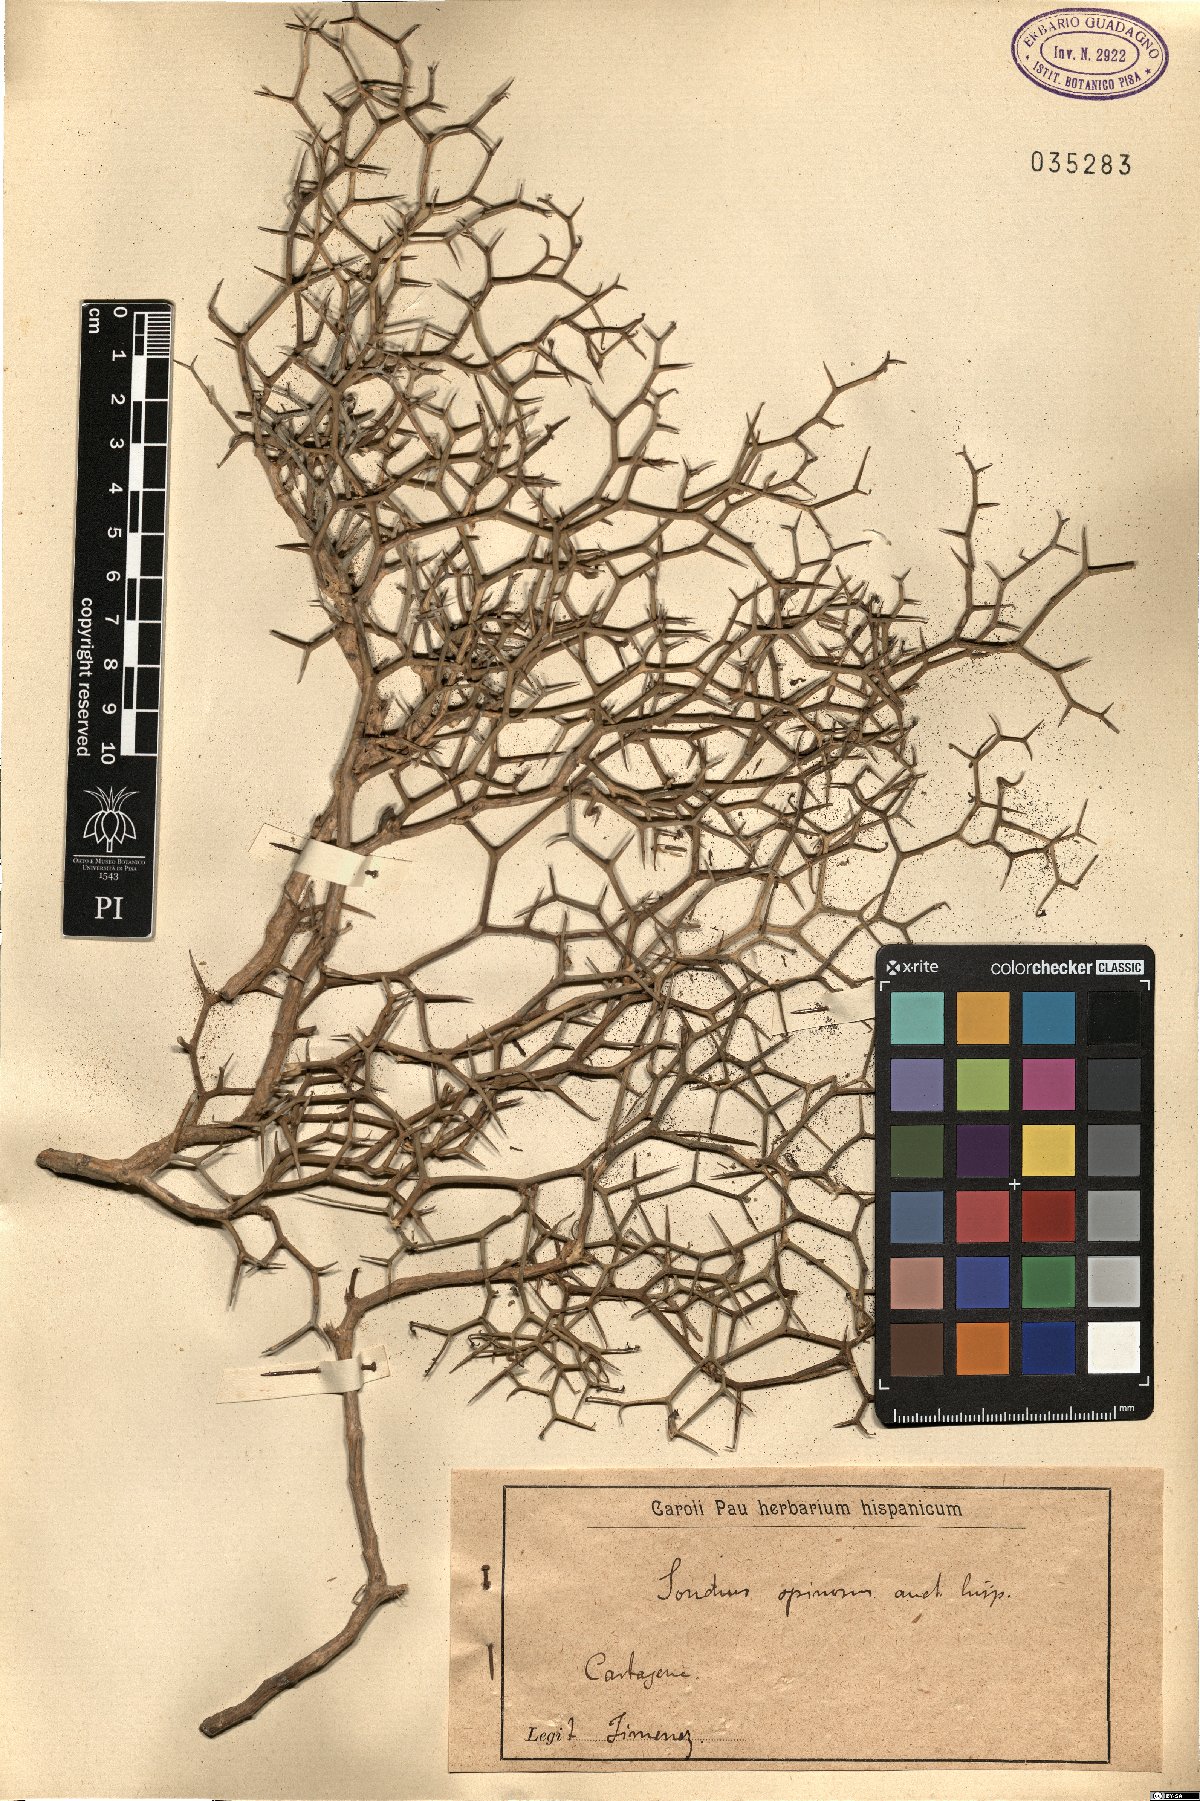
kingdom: Plantae
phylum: Tracheophyta
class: Magnoliopsida
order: Asterales
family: Asteraceae
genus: Sonchus
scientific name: Sonchus
